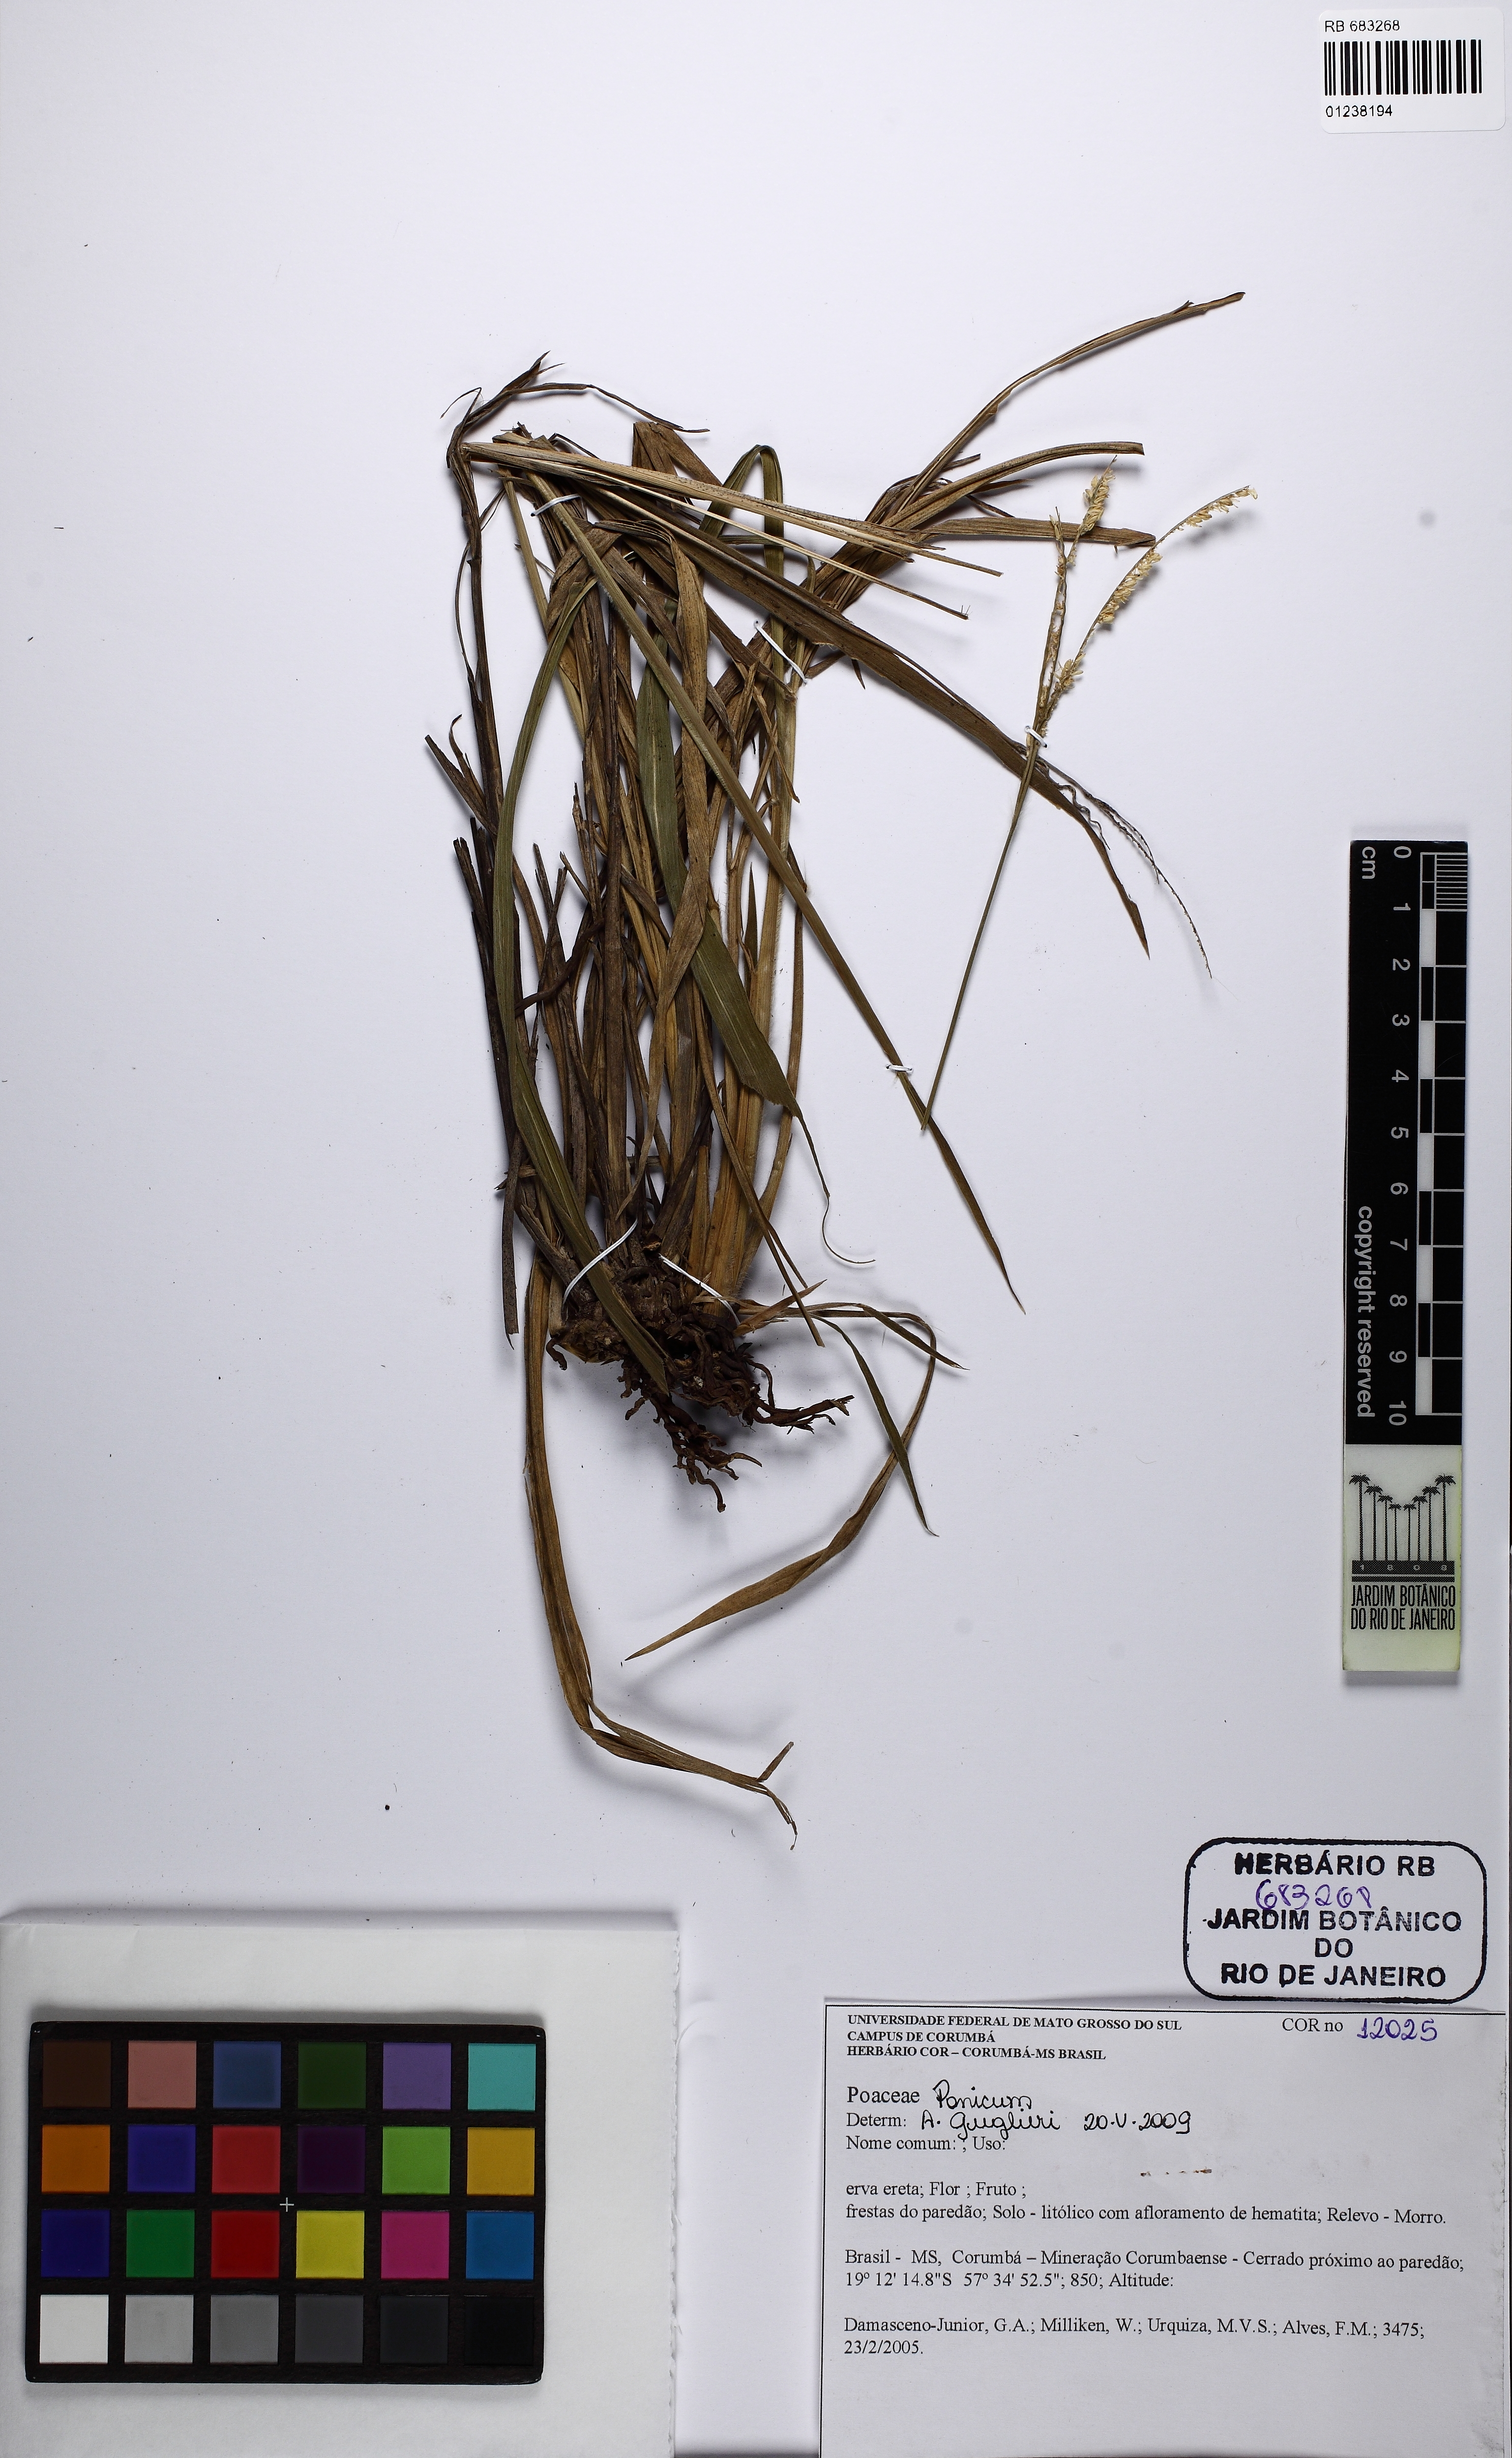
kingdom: Plantae
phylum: Tracheophyta
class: Liliopsida
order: Poales
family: Poaceae
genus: Panicum
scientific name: Panicum
